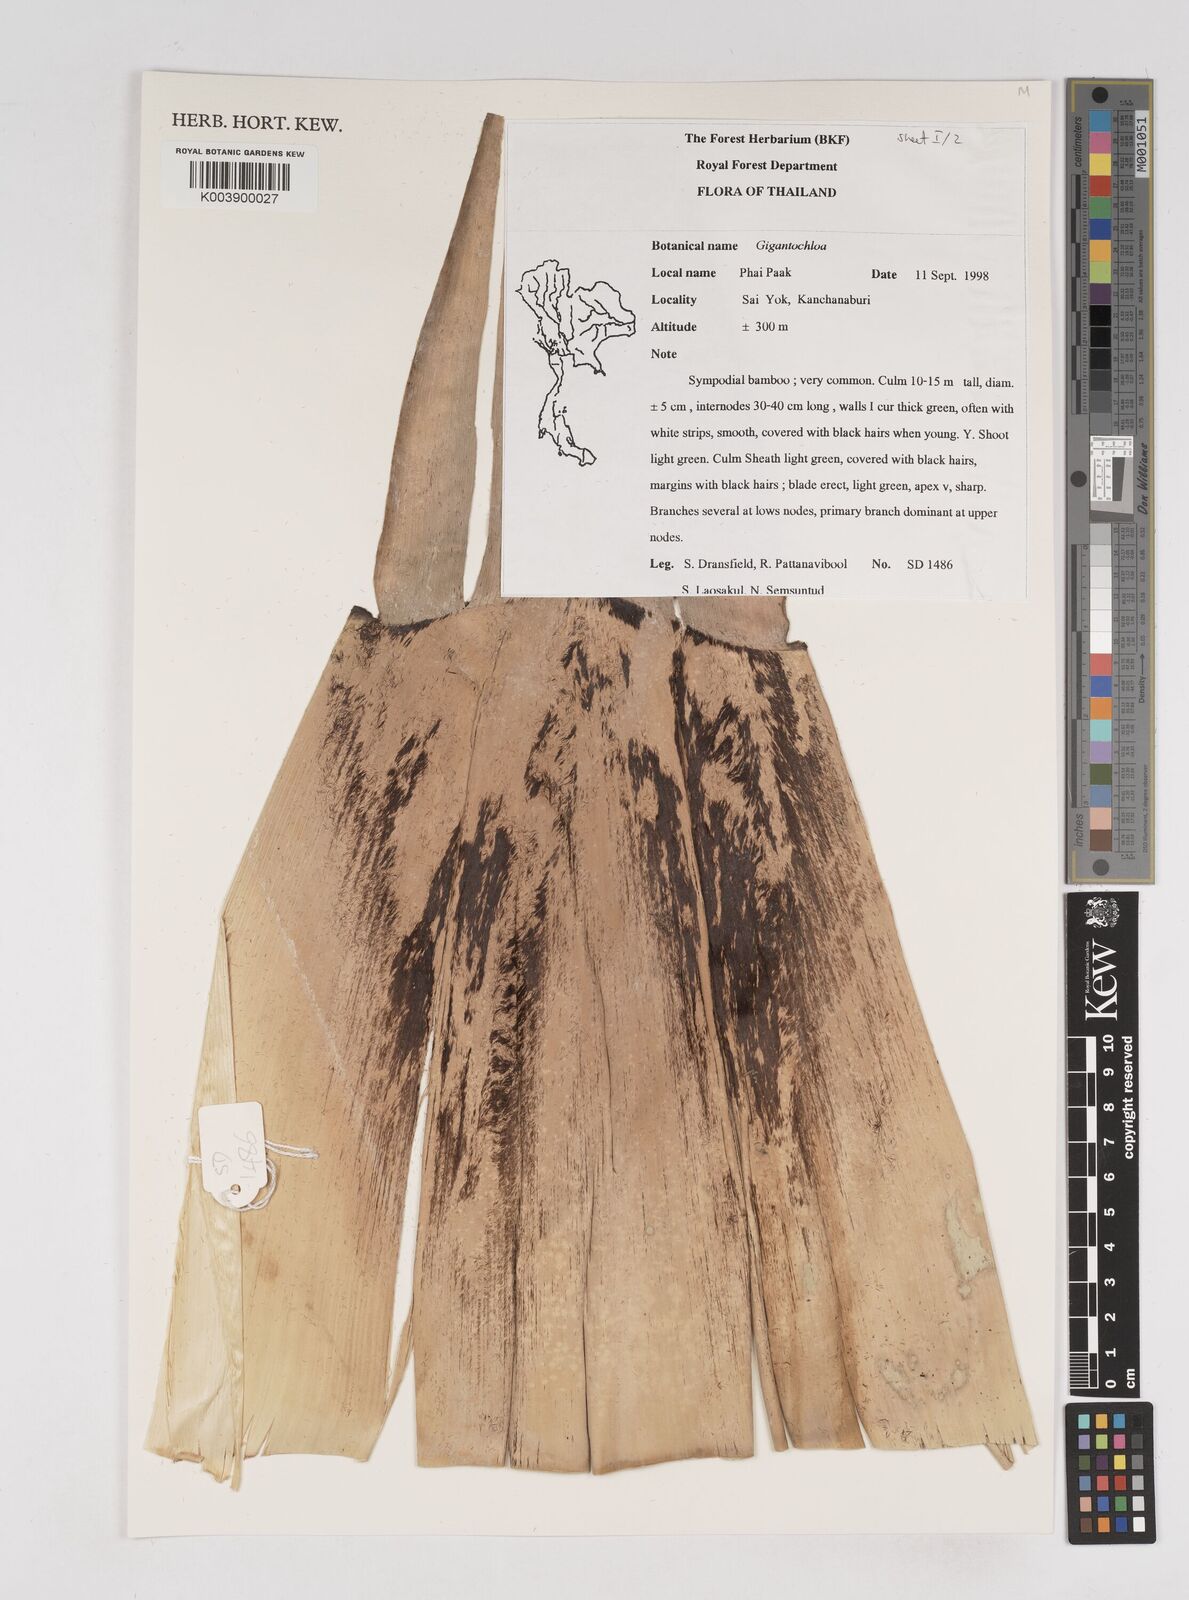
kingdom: Plantae
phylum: Tracheophyta
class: Liliopsida
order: Poales
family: Poaceae
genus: Gigantochloa
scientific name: Gigantochloa
